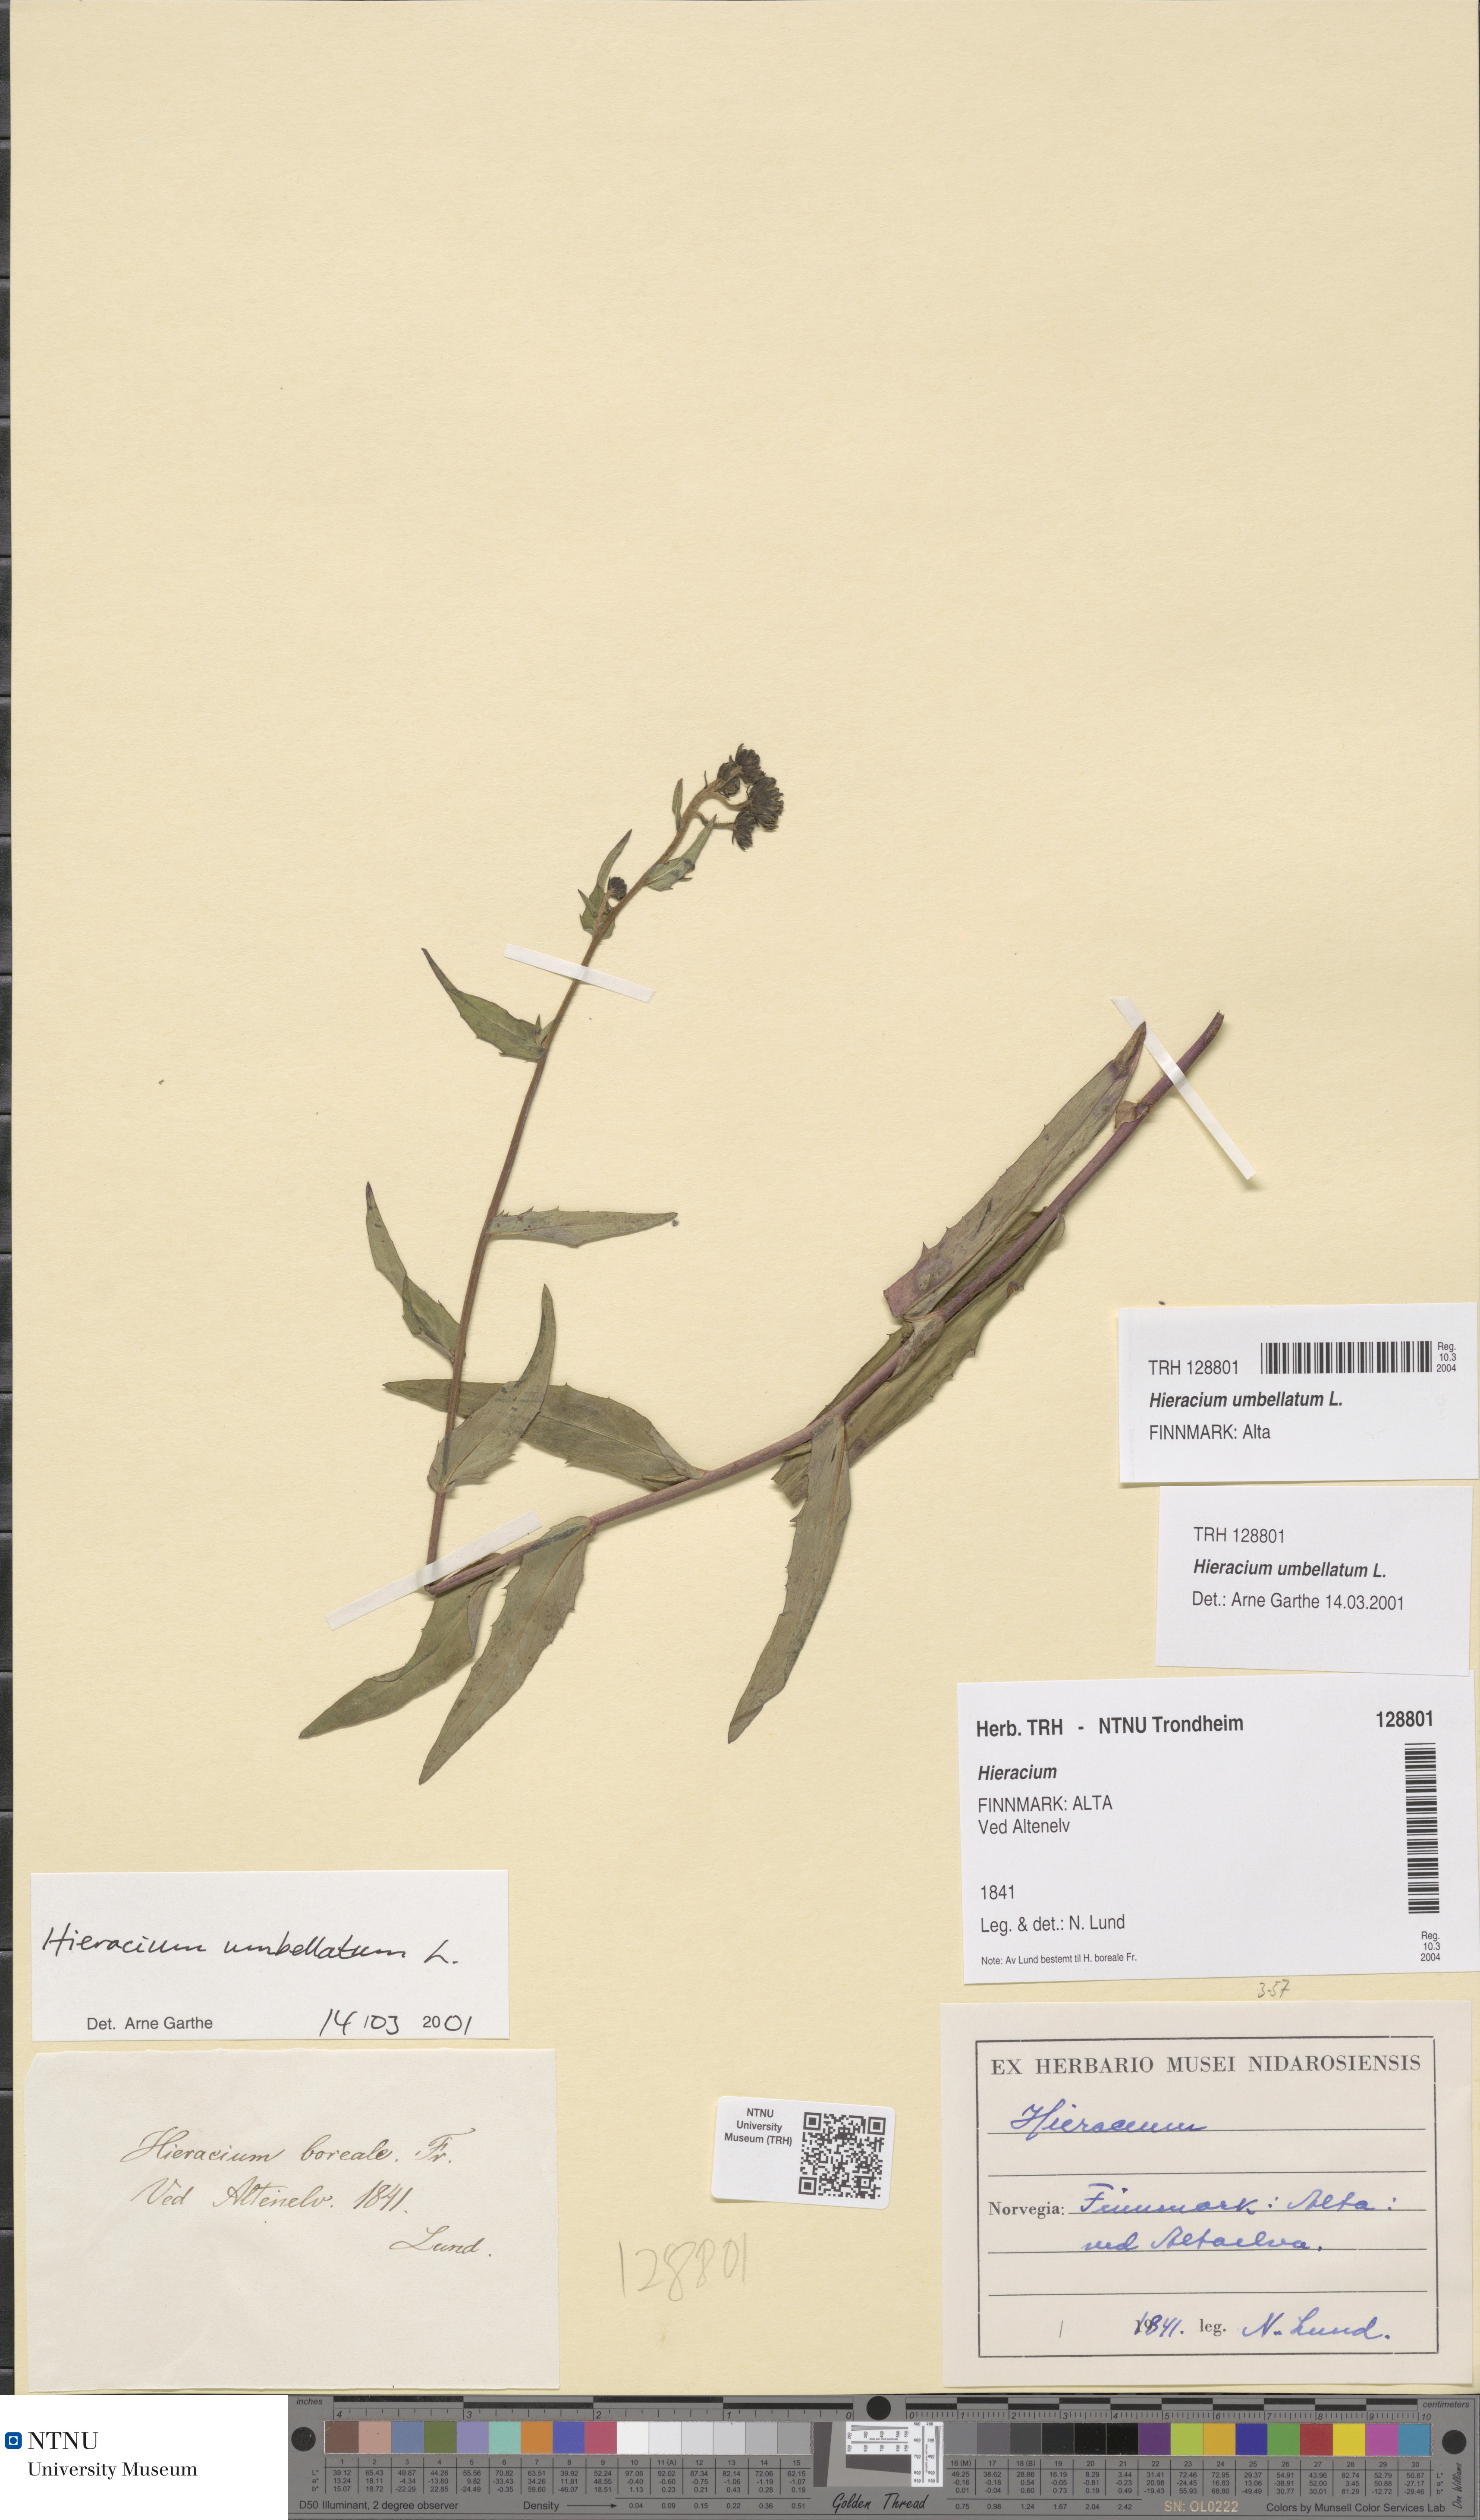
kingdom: Plantae
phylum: Tracheophyta
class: Magnoliopsida
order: Asterales
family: Asteraceae
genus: Hieracium
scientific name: Hieracium umbellatum
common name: Northern hawkweed
